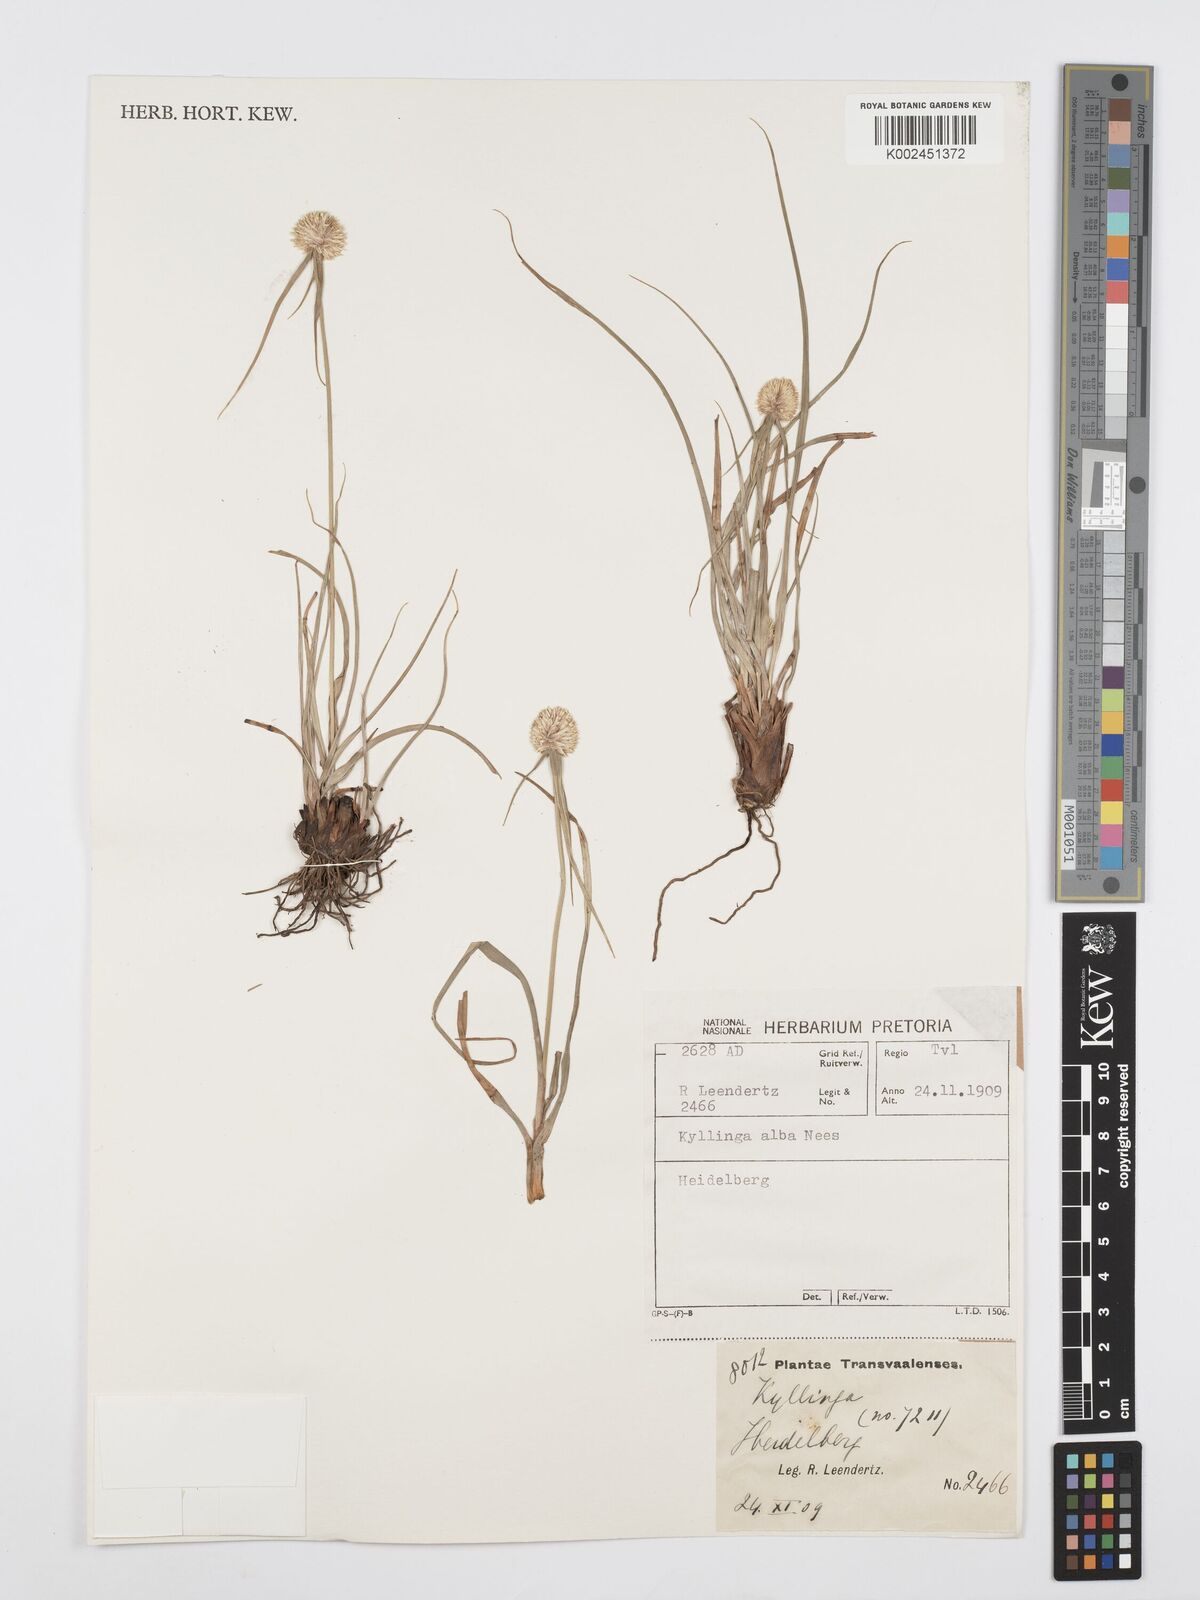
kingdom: Plantae
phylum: Tracheophyta
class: Liliopsida
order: Poales
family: Cyperaceae
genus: Cyperus
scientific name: Cyperus
